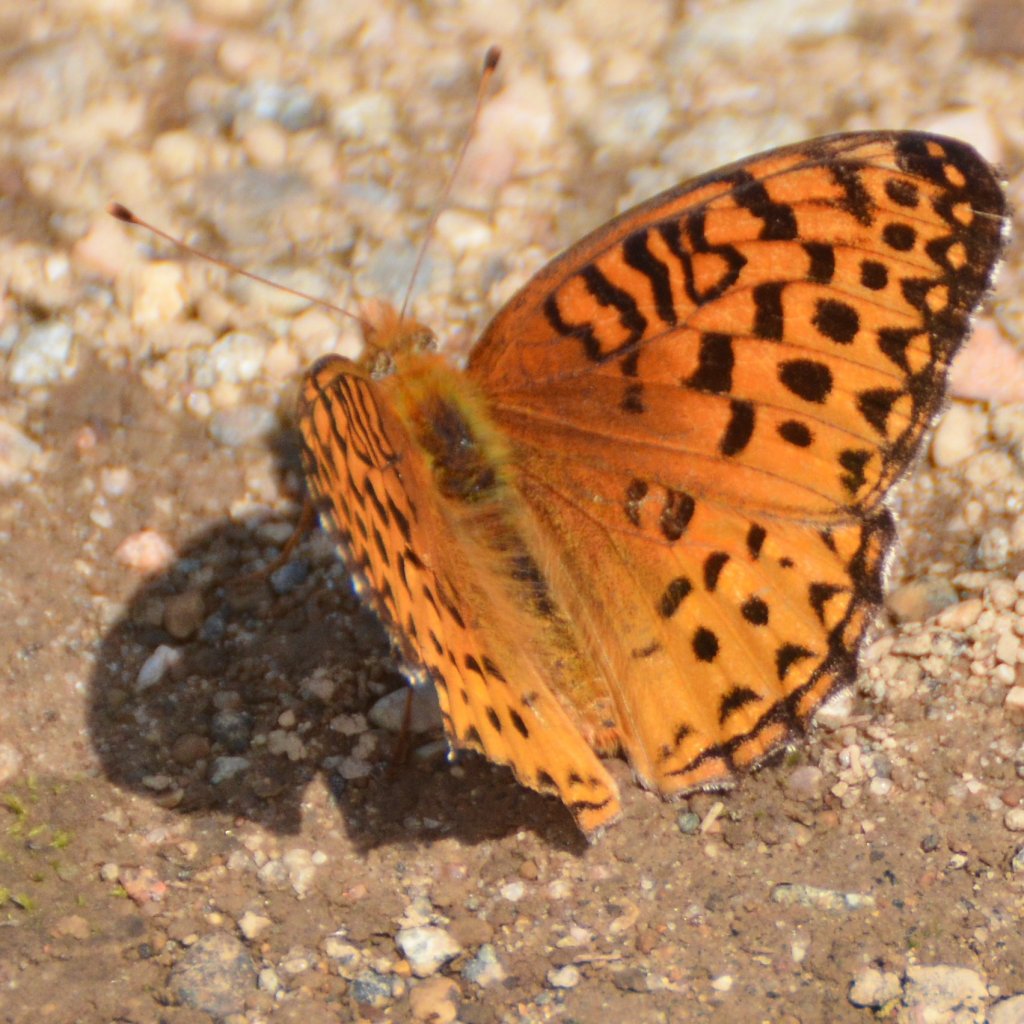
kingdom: Animalia
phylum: Arthropoda
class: Insecta
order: Lepidoptera
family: Nymphalidae
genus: Speyeria
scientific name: Speyeria aphrodite
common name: Aphrodite Fritillary
